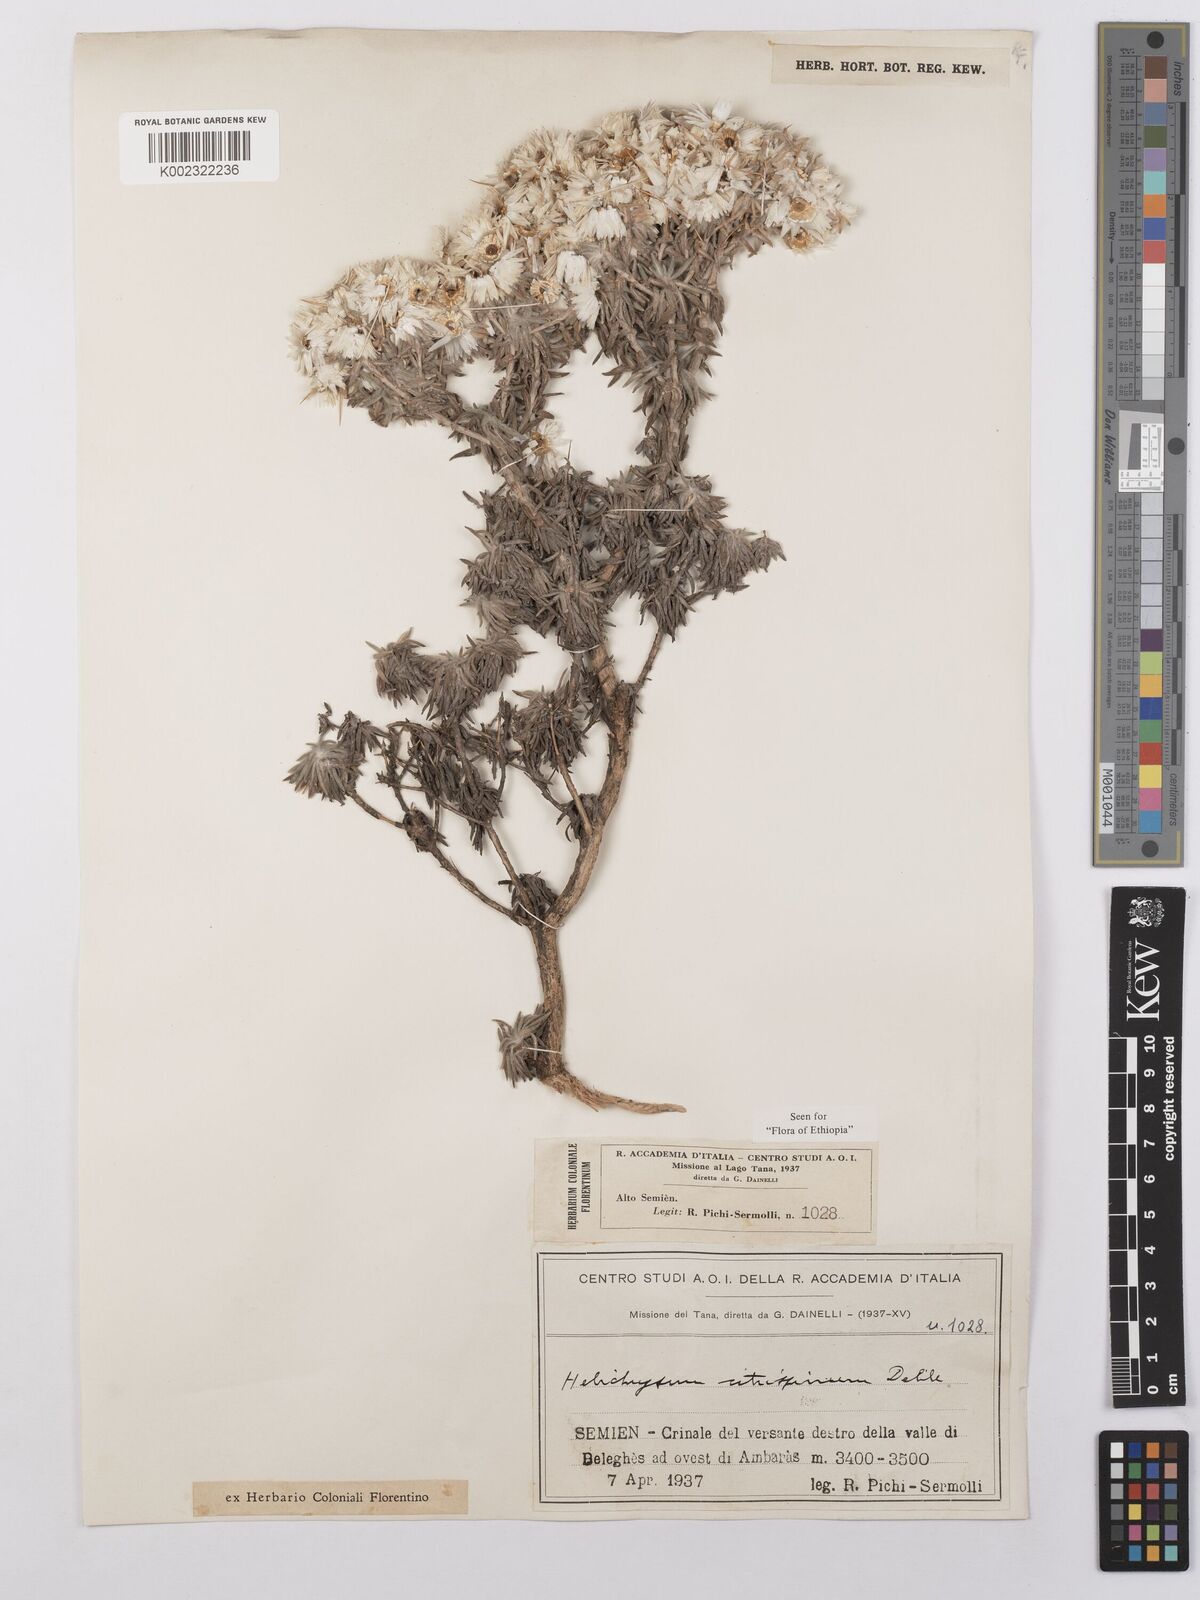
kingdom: Plantae
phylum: Tracheophyta
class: Magnoliopsida
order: Asterales
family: Asteraceae
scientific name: Asteraceae
